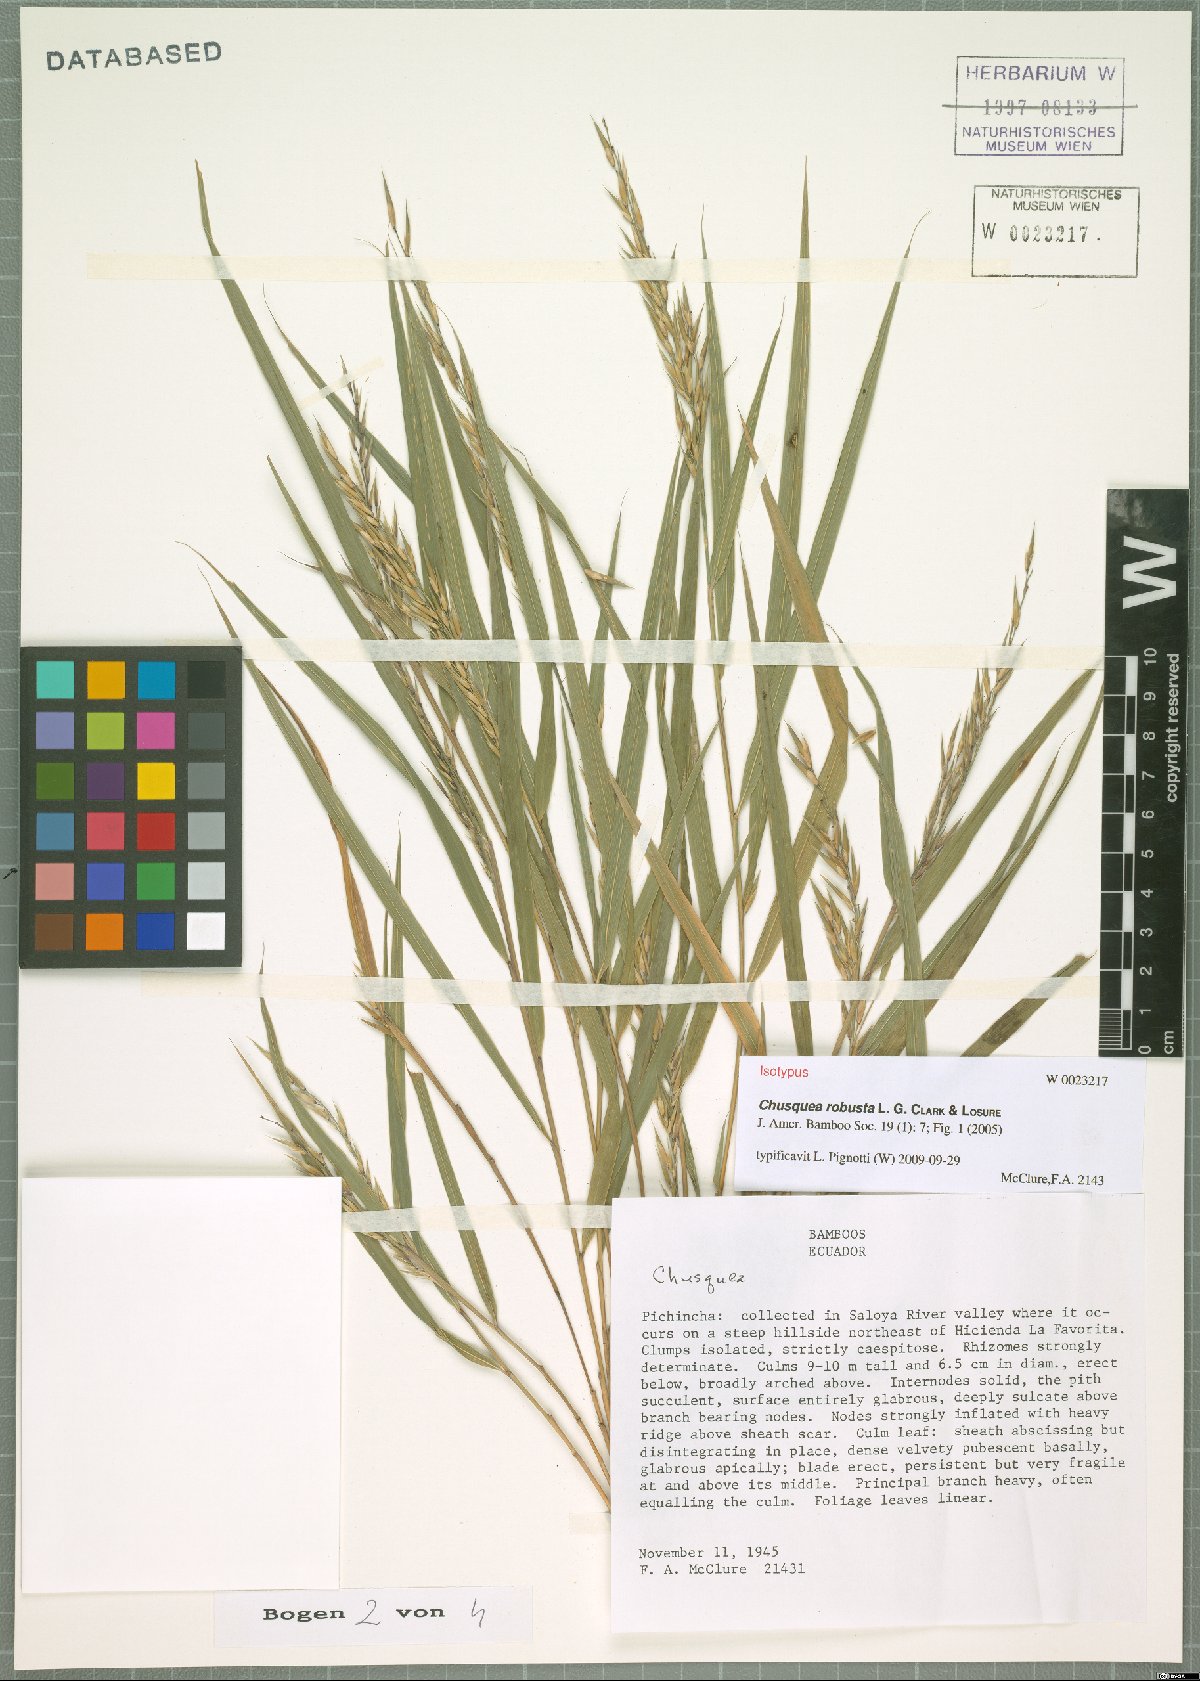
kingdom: Plantae
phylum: Tracheophyta
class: Liliopsida
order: Poales
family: Poaceae
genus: Chusquea
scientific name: Chusquea robusta
